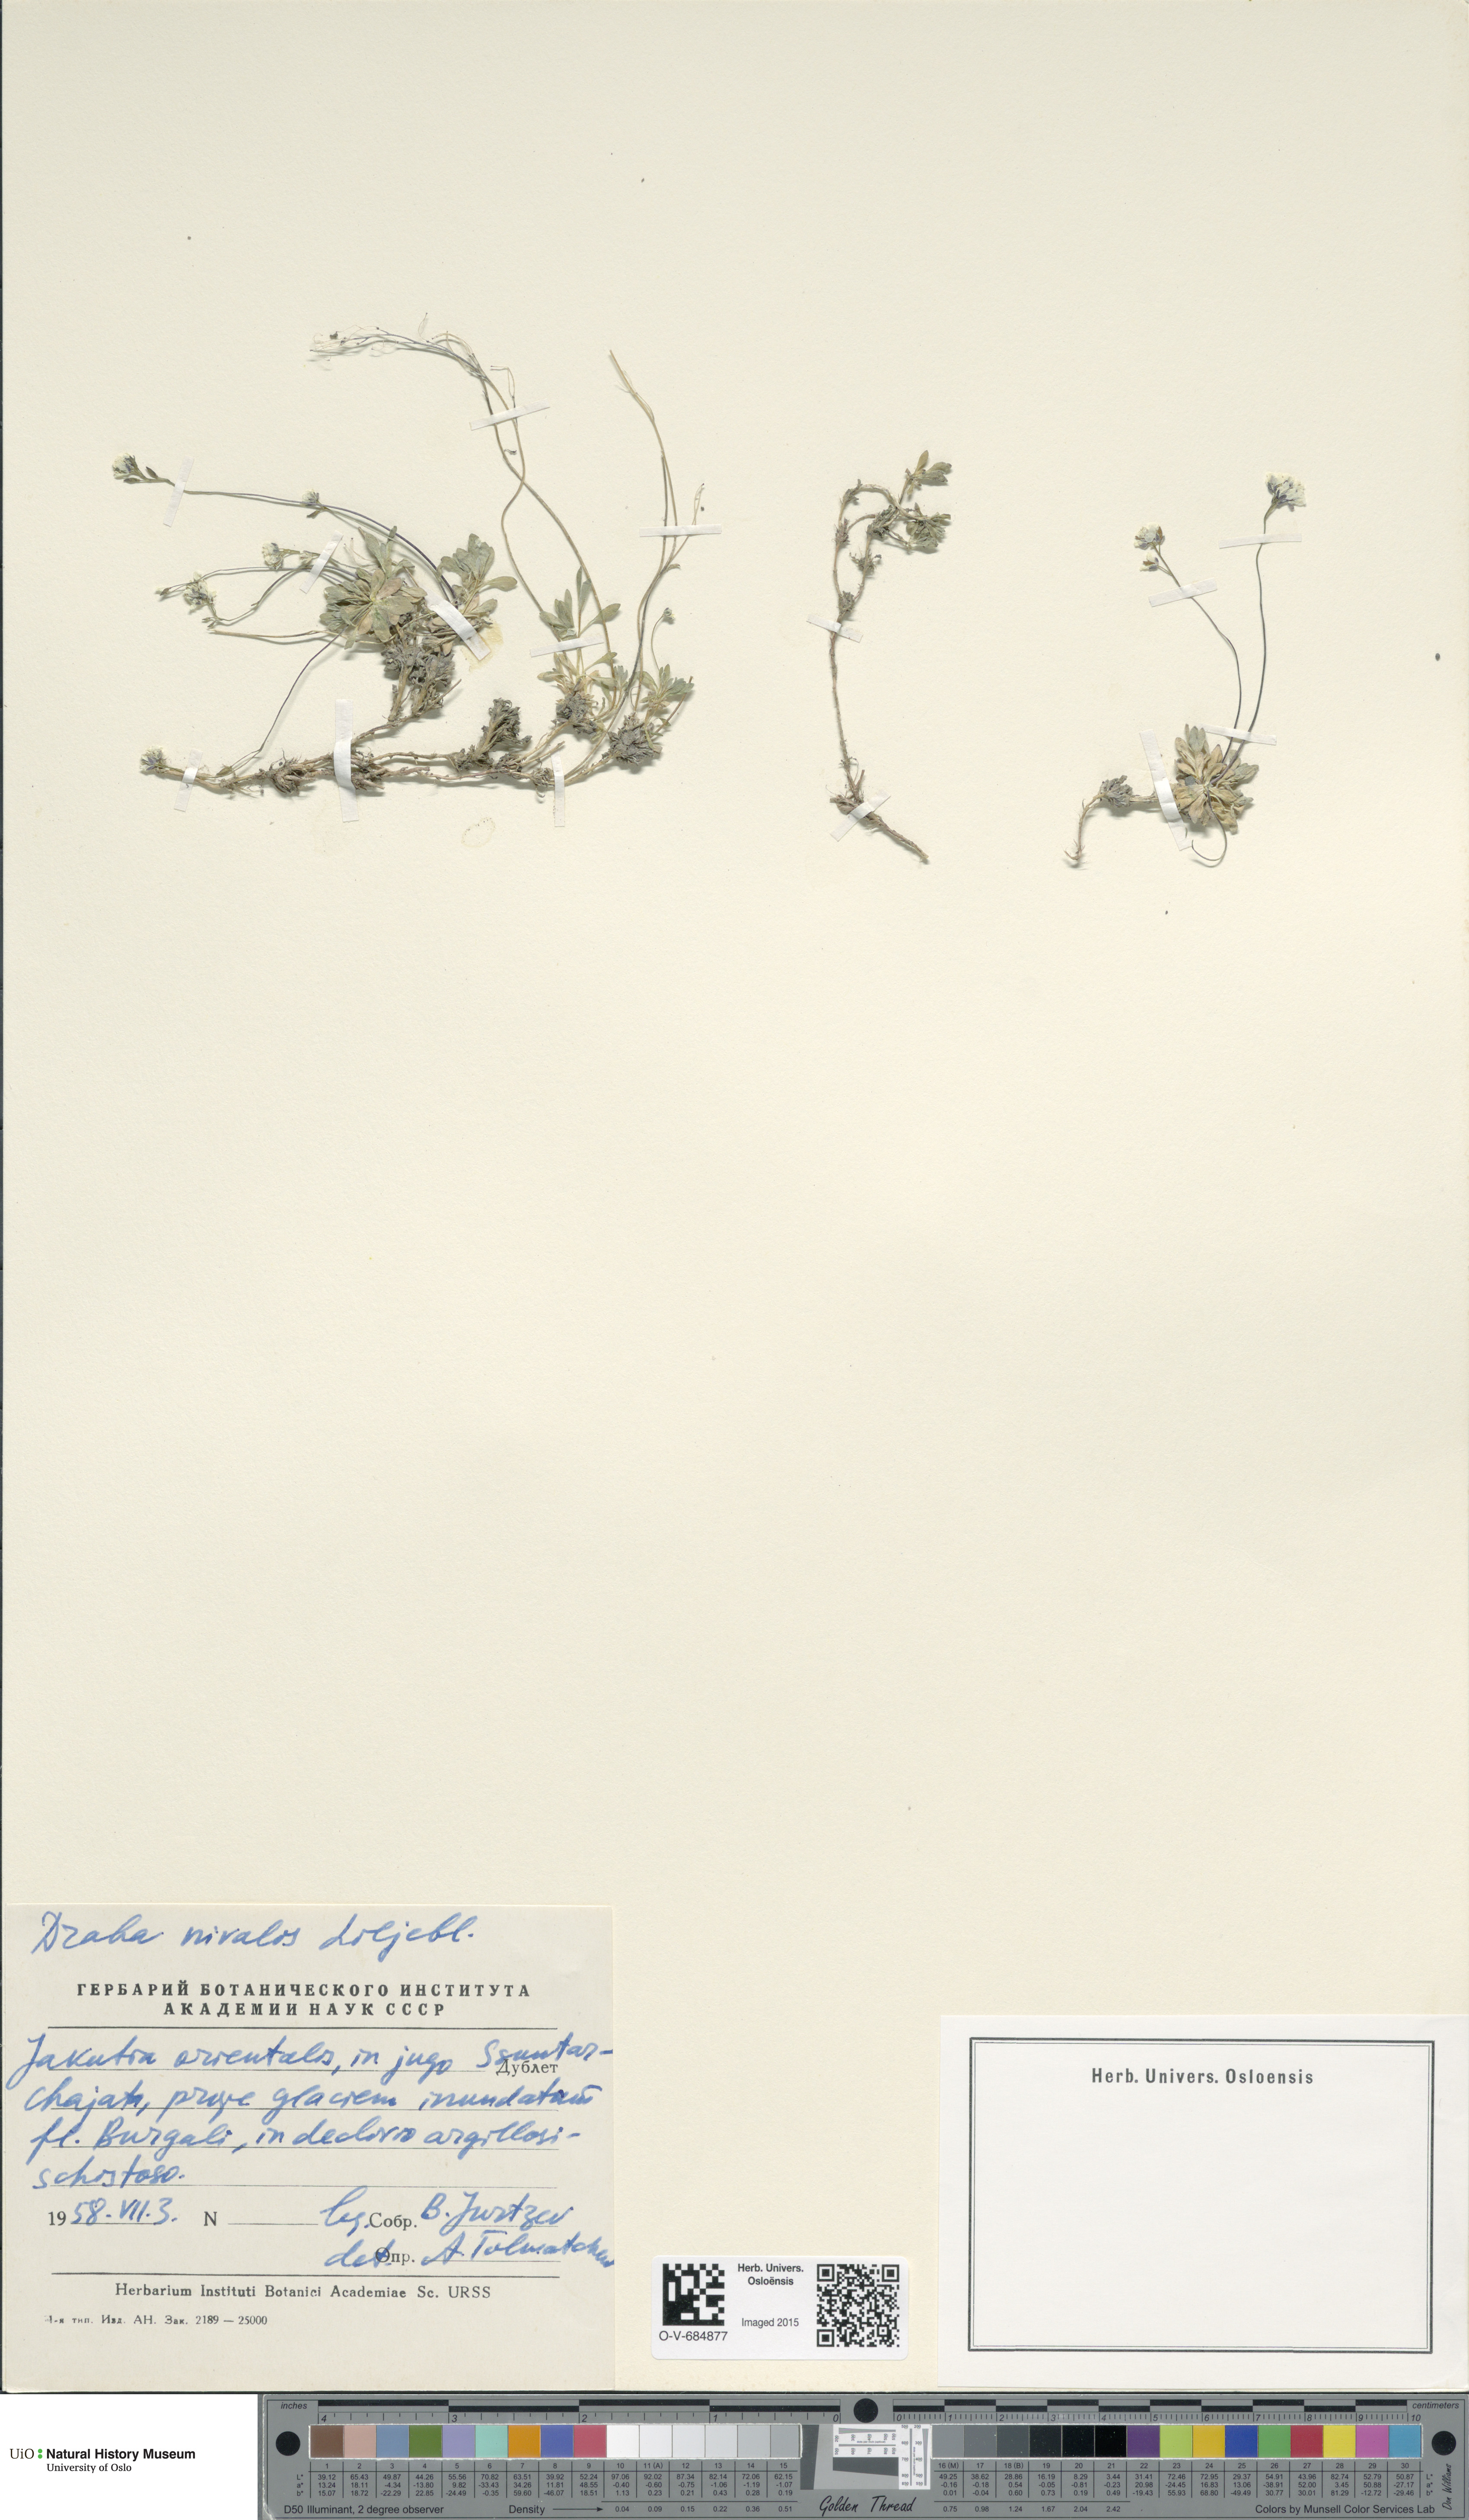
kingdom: Plantae
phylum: Tracheophyta
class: Magnoliopsida
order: Brassicales
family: Brassicaceae
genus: Draba
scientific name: Draba nivalis
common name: Snow draba
